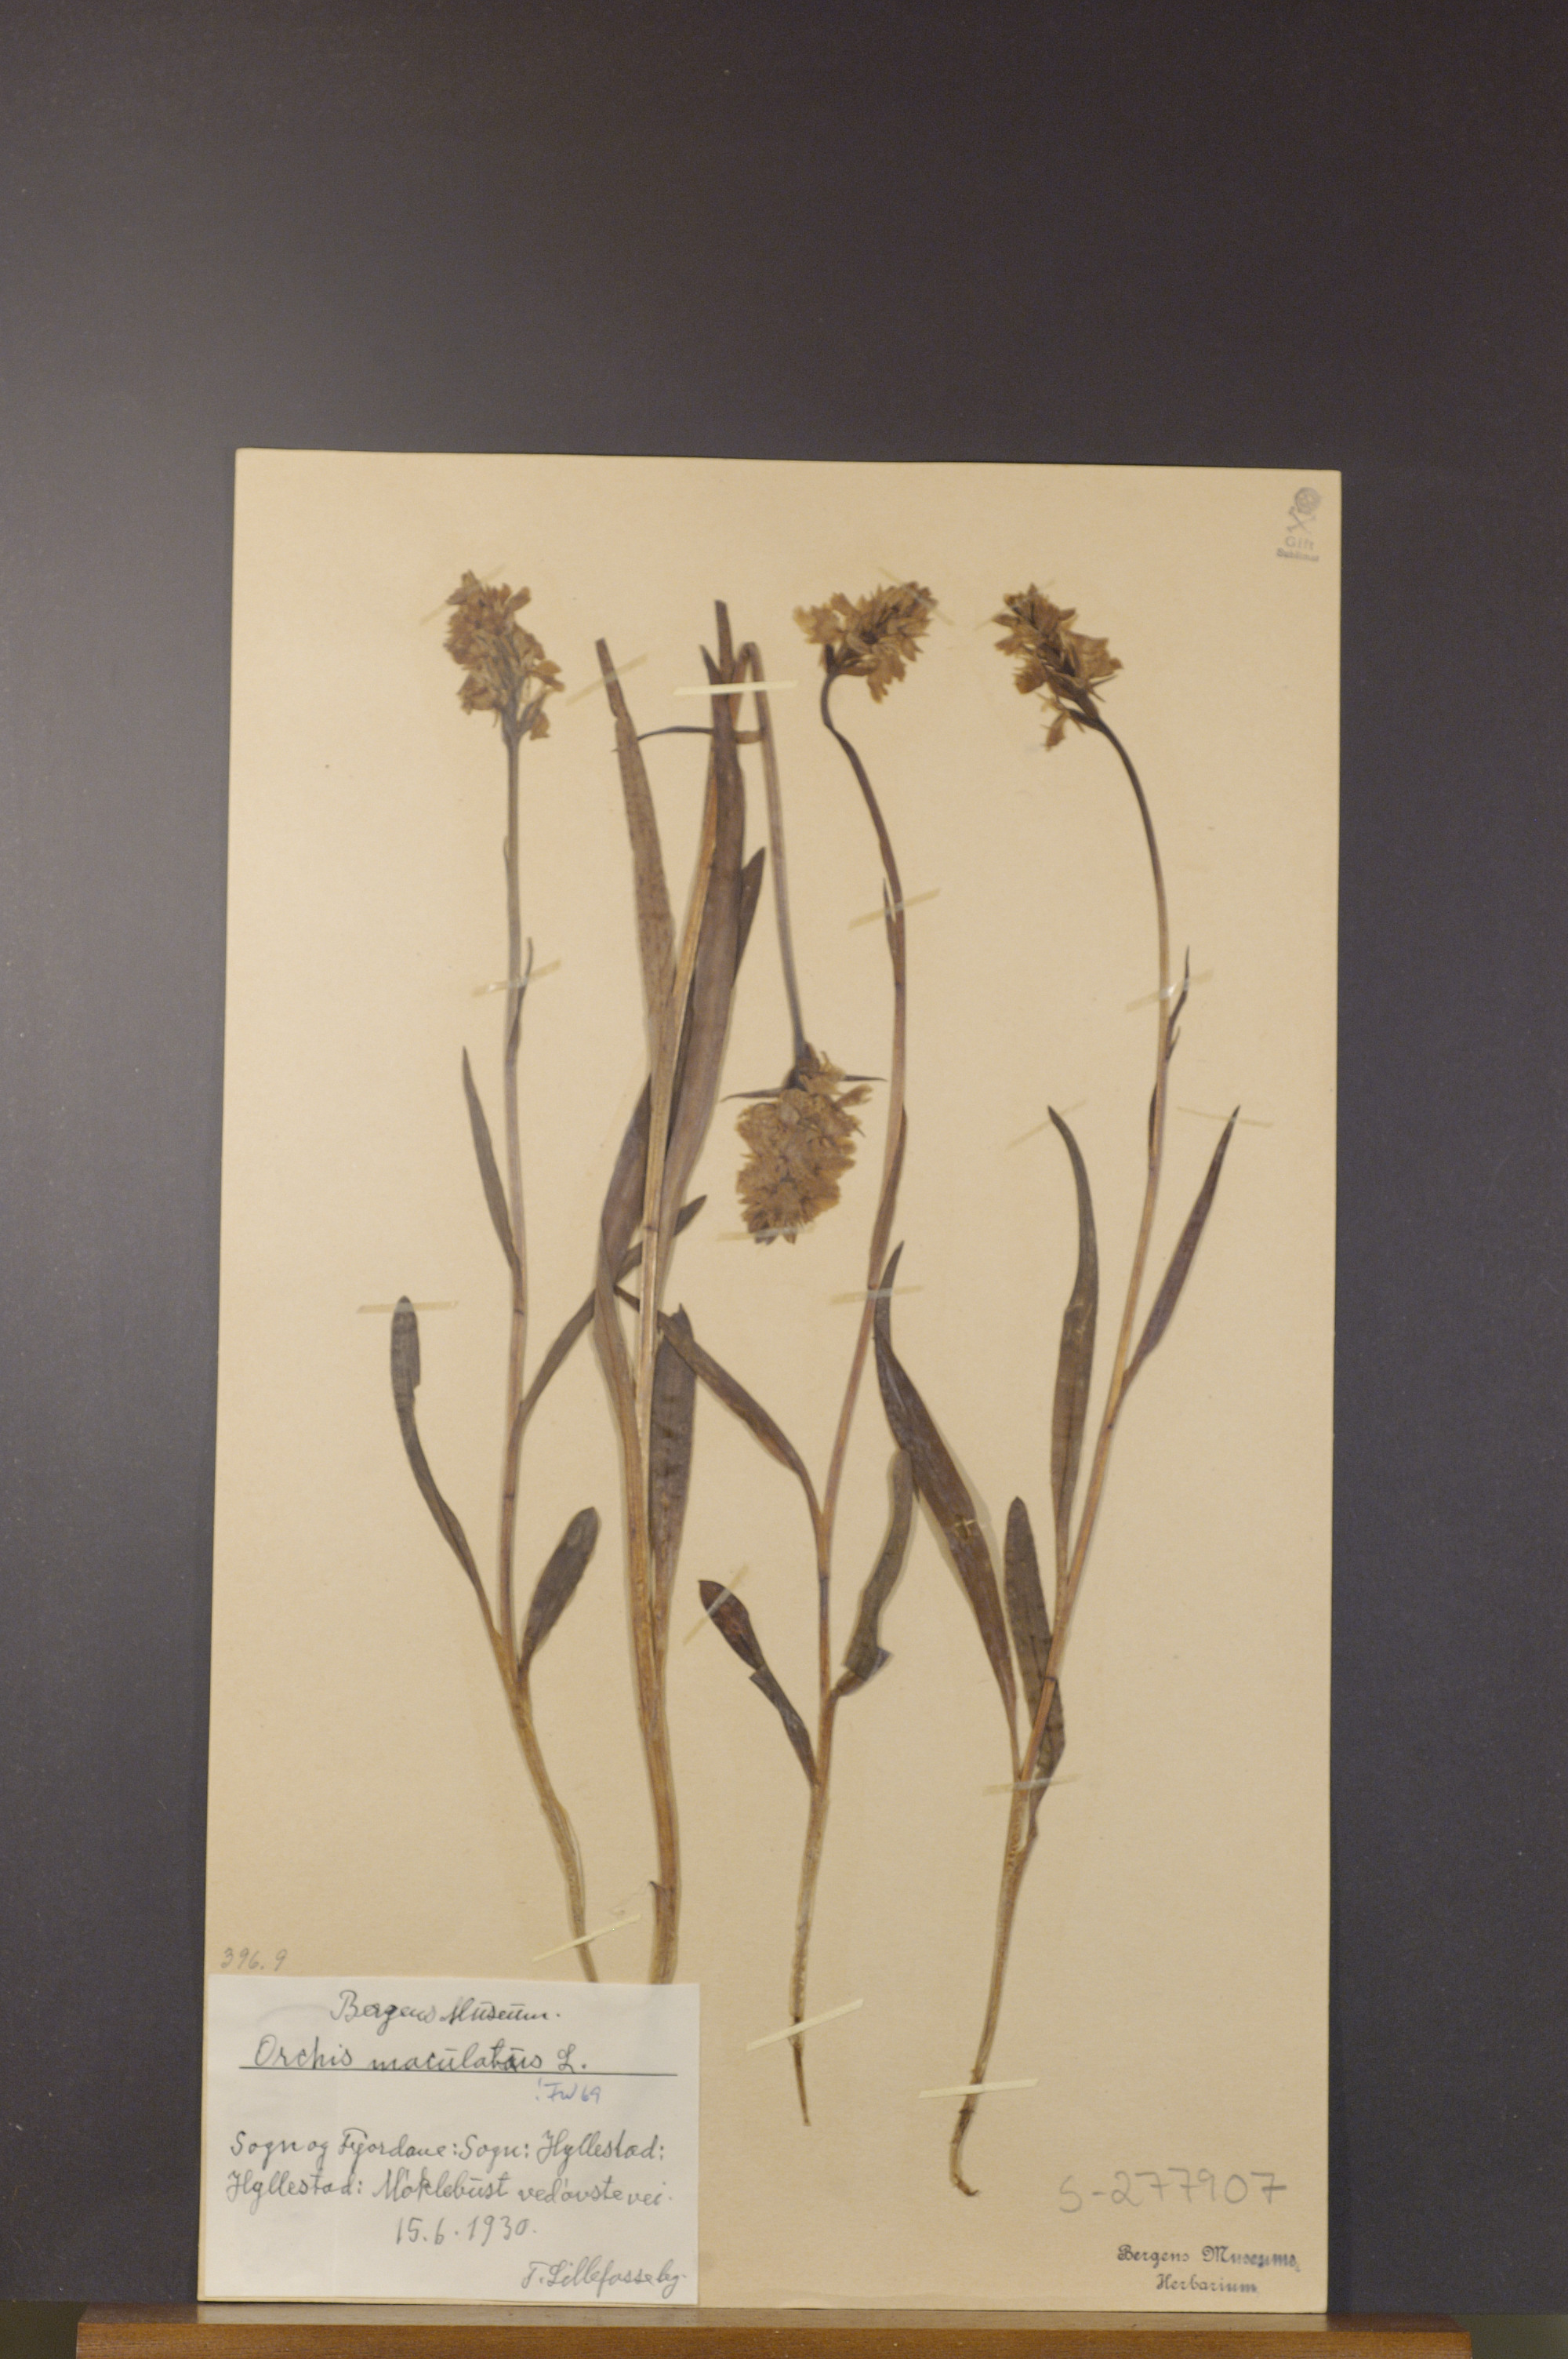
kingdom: Plantae
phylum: Tracheophyta
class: Liliopsida
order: Asparagales
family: Orchidaceae
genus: Dactylorhiza
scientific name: Dactylorhiza maculata
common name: Heath spotted-orchid
